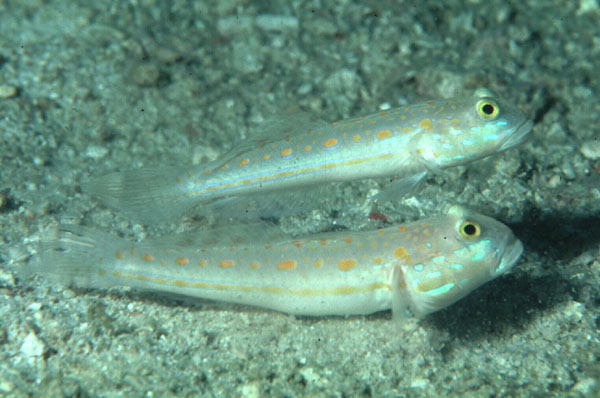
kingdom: Animalia
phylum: Chordata
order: Perciformes
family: Gobiidae
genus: Valenciennea
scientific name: Valenciennea puellaris
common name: Orange-dashed goby
